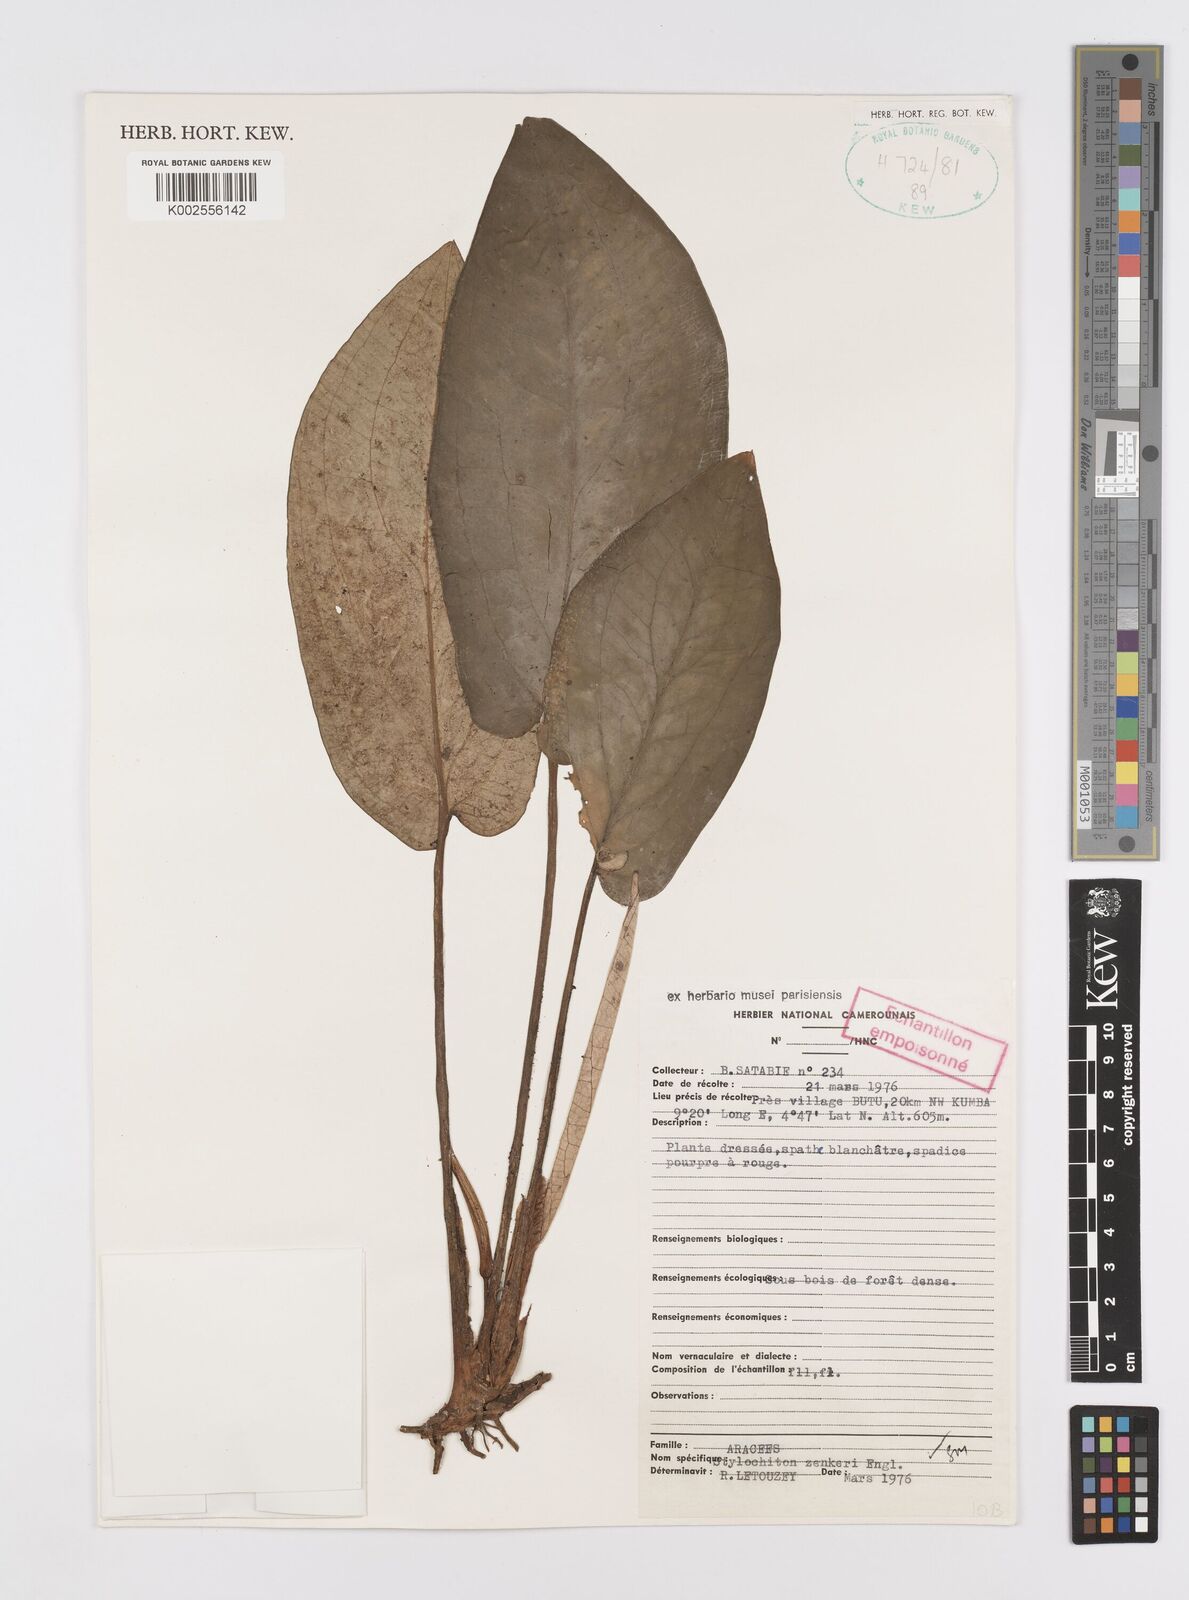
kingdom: Plantae
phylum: Tracheophyta
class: Liliopsida
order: Alismatales
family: Araceae
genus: Stylochaeton
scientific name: Stylochaeton zenkeri
